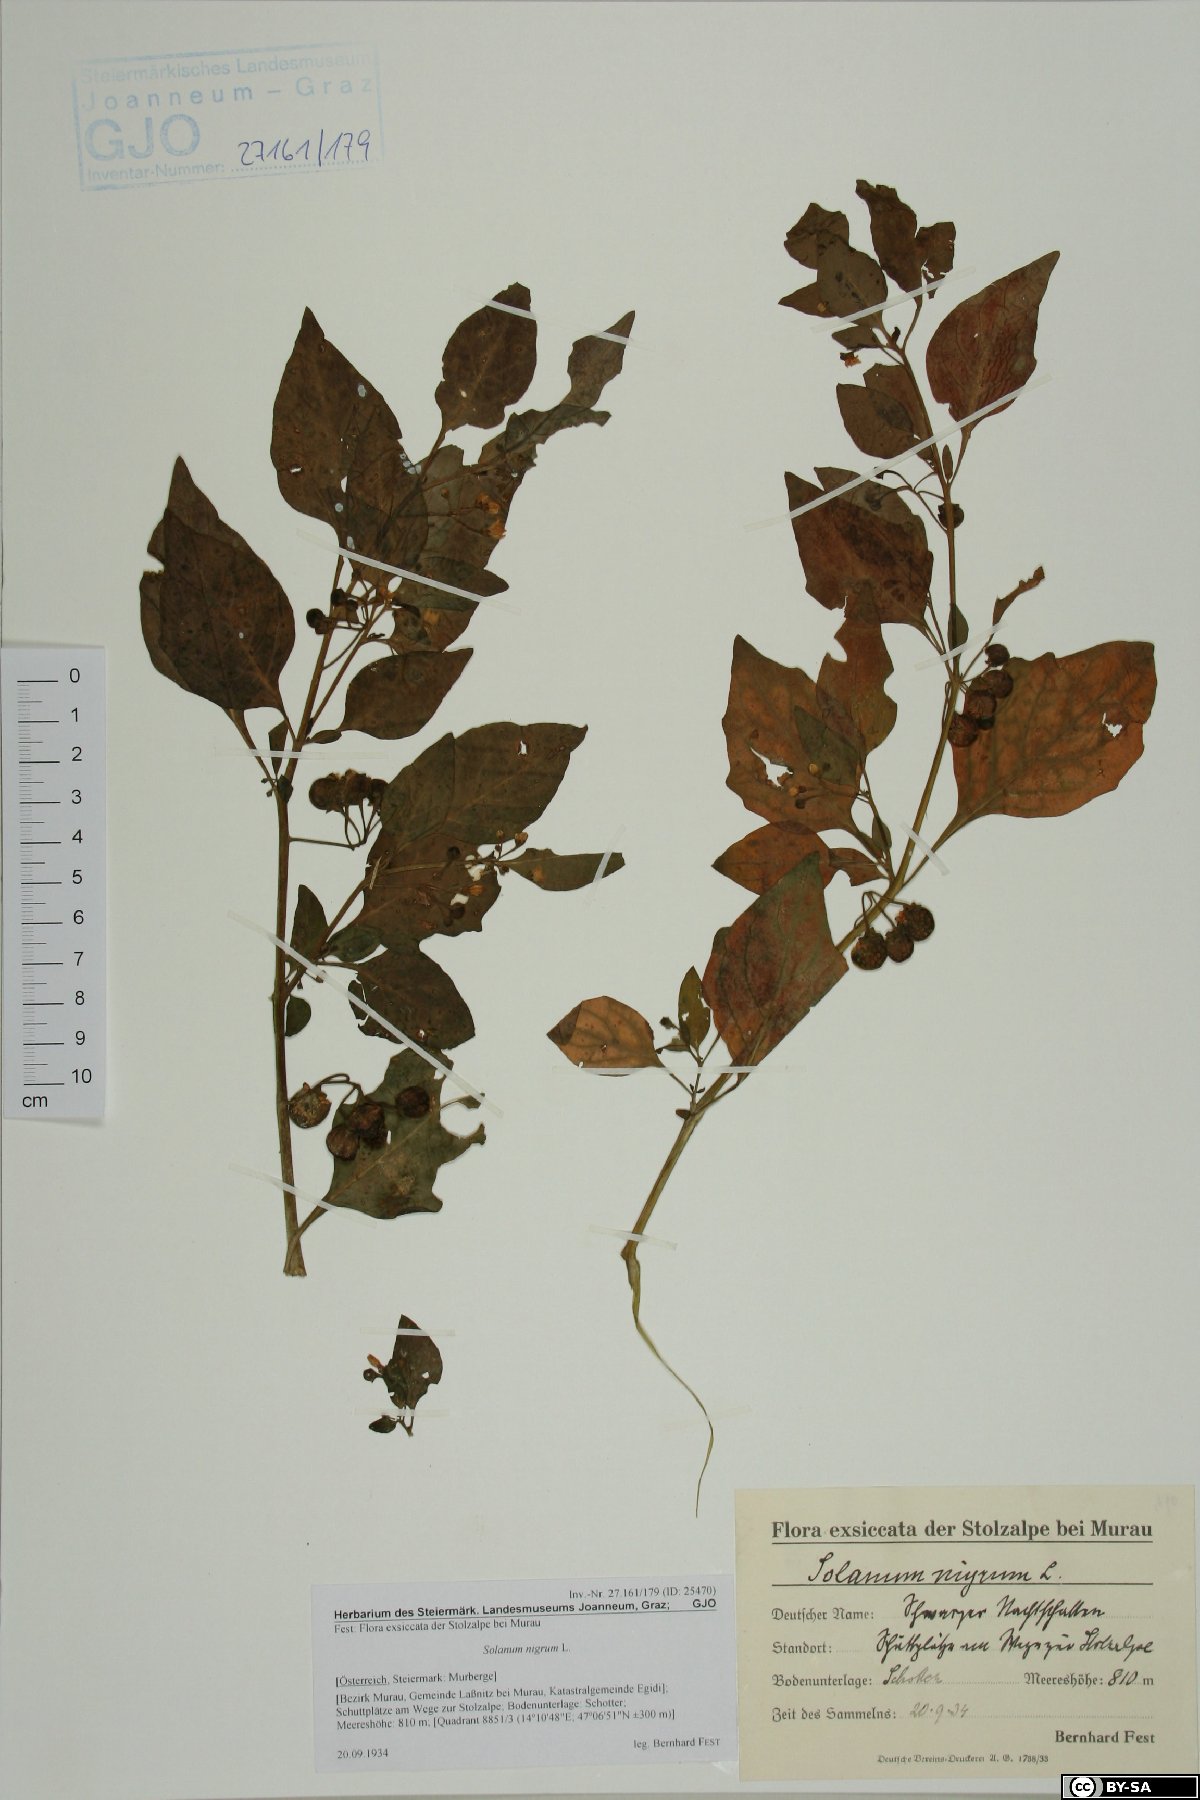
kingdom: Plantae
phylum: Tracheophyta
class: Magnoliopsida
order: Solanales
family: Solanaceae
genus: Solanum
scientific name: Solanum nigrum
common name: Black nightshade
